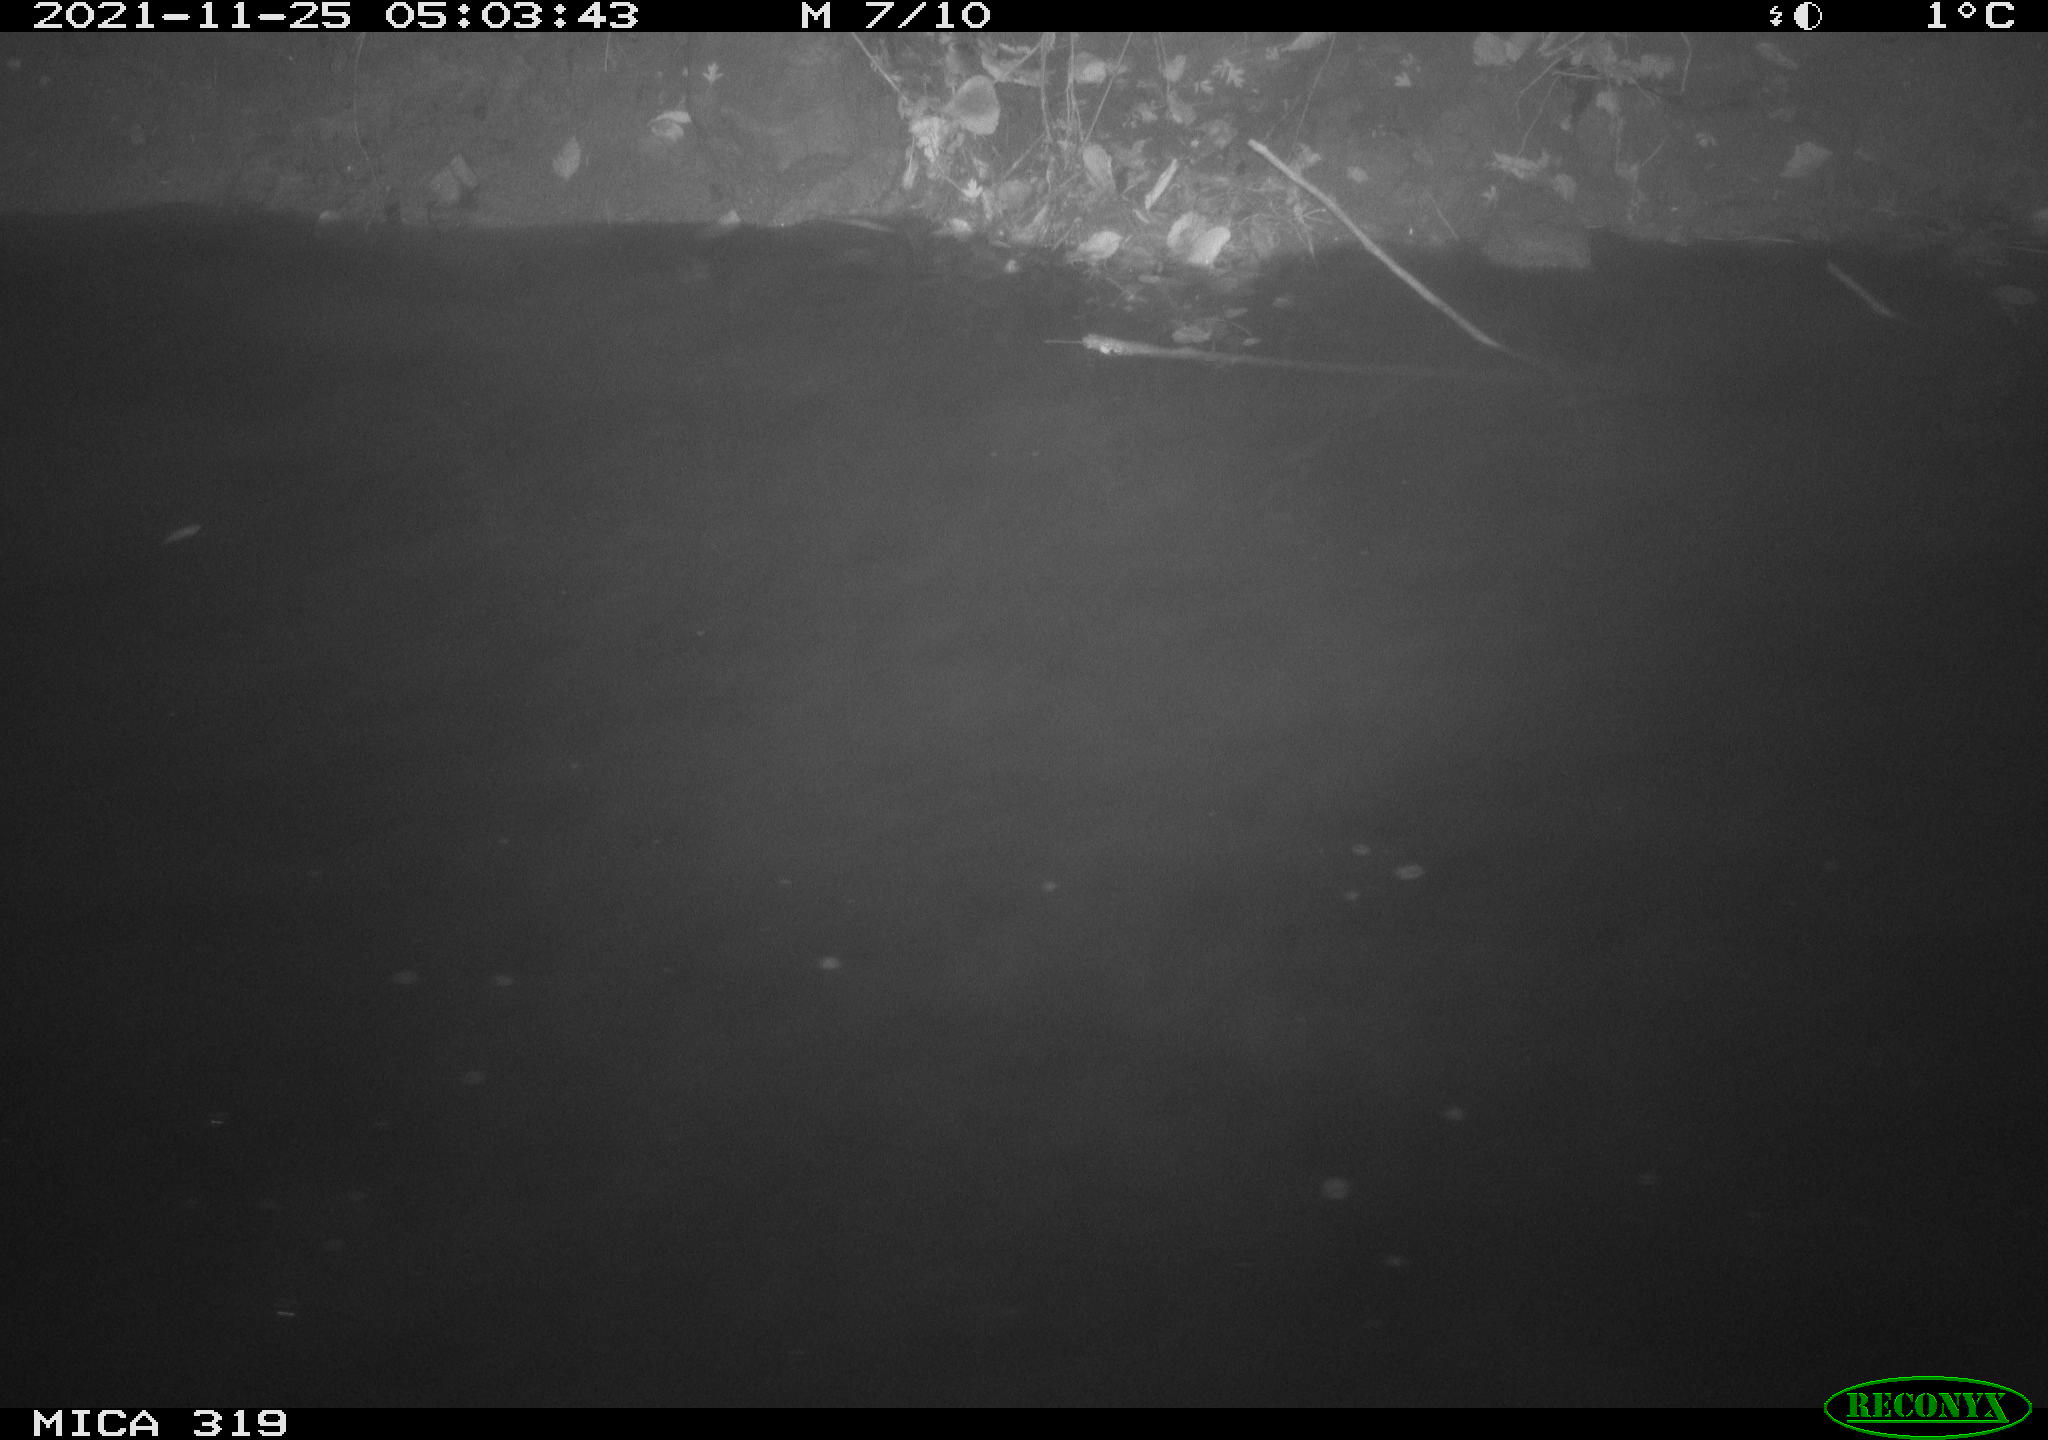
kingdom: Animalia
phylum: Chordata
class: Aves
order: Anseriformes
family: Anatidae
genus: Anas
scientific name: Anas platyrhynchos
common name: Mallard
